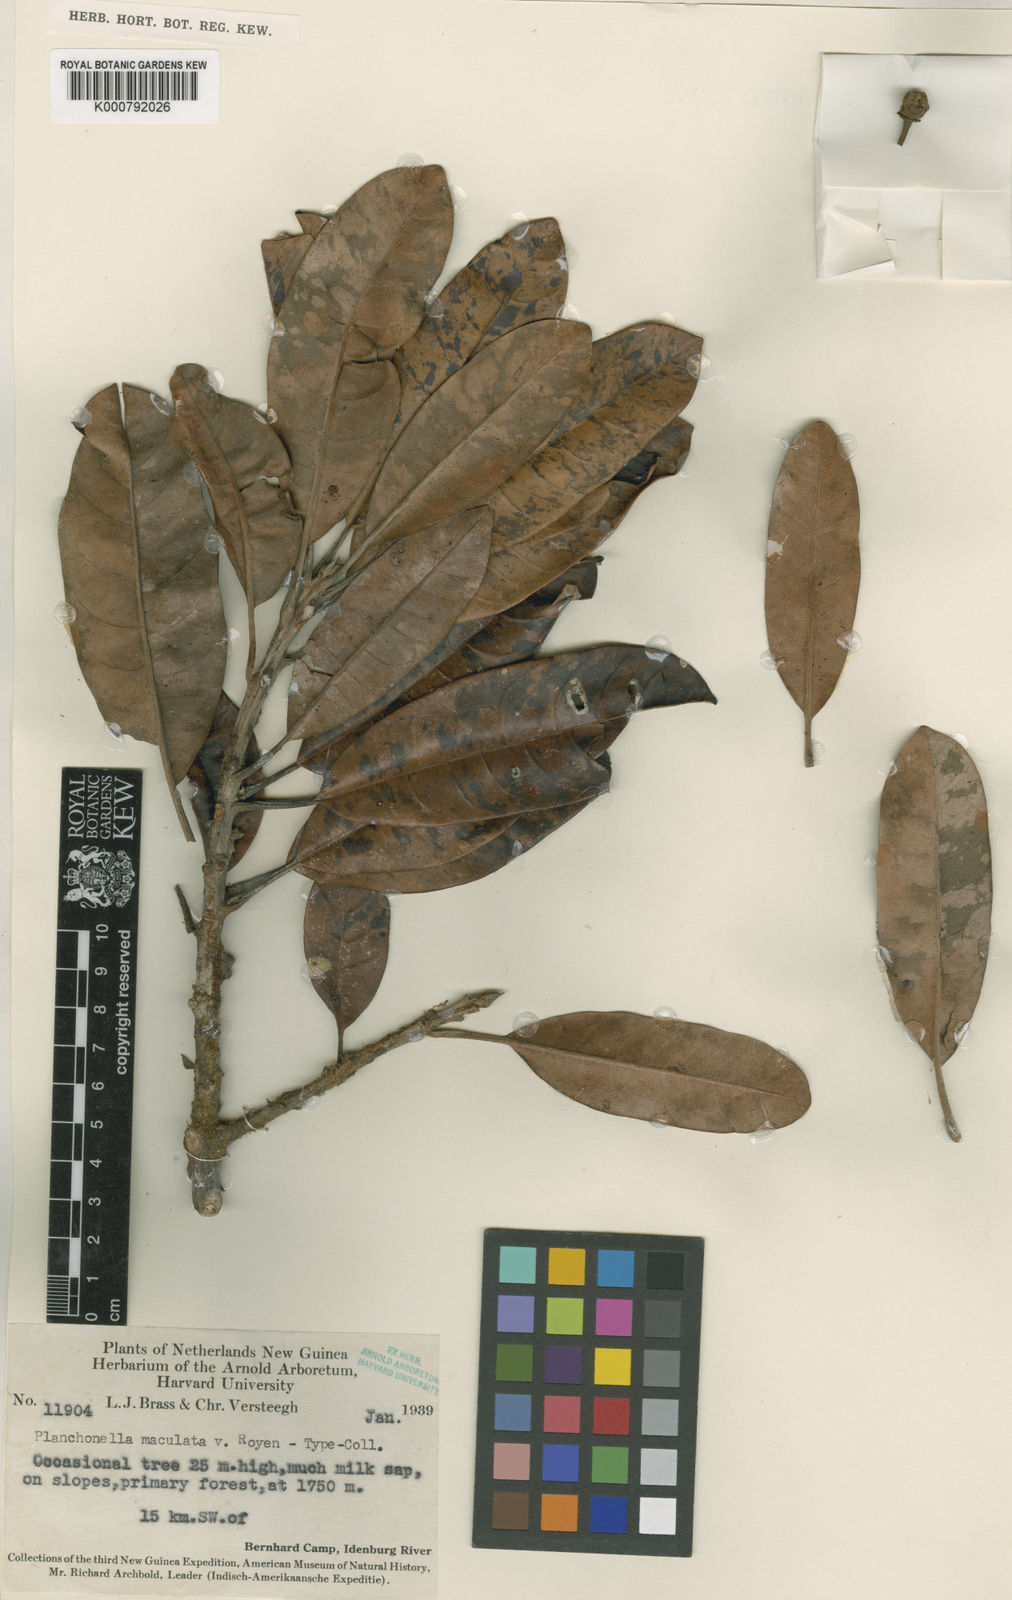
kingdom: Plantae
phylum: Tracheophyta
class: Magnoliopsida
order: Ericales
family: Sapotaceae
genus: Pouteria
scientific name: Pouteria
